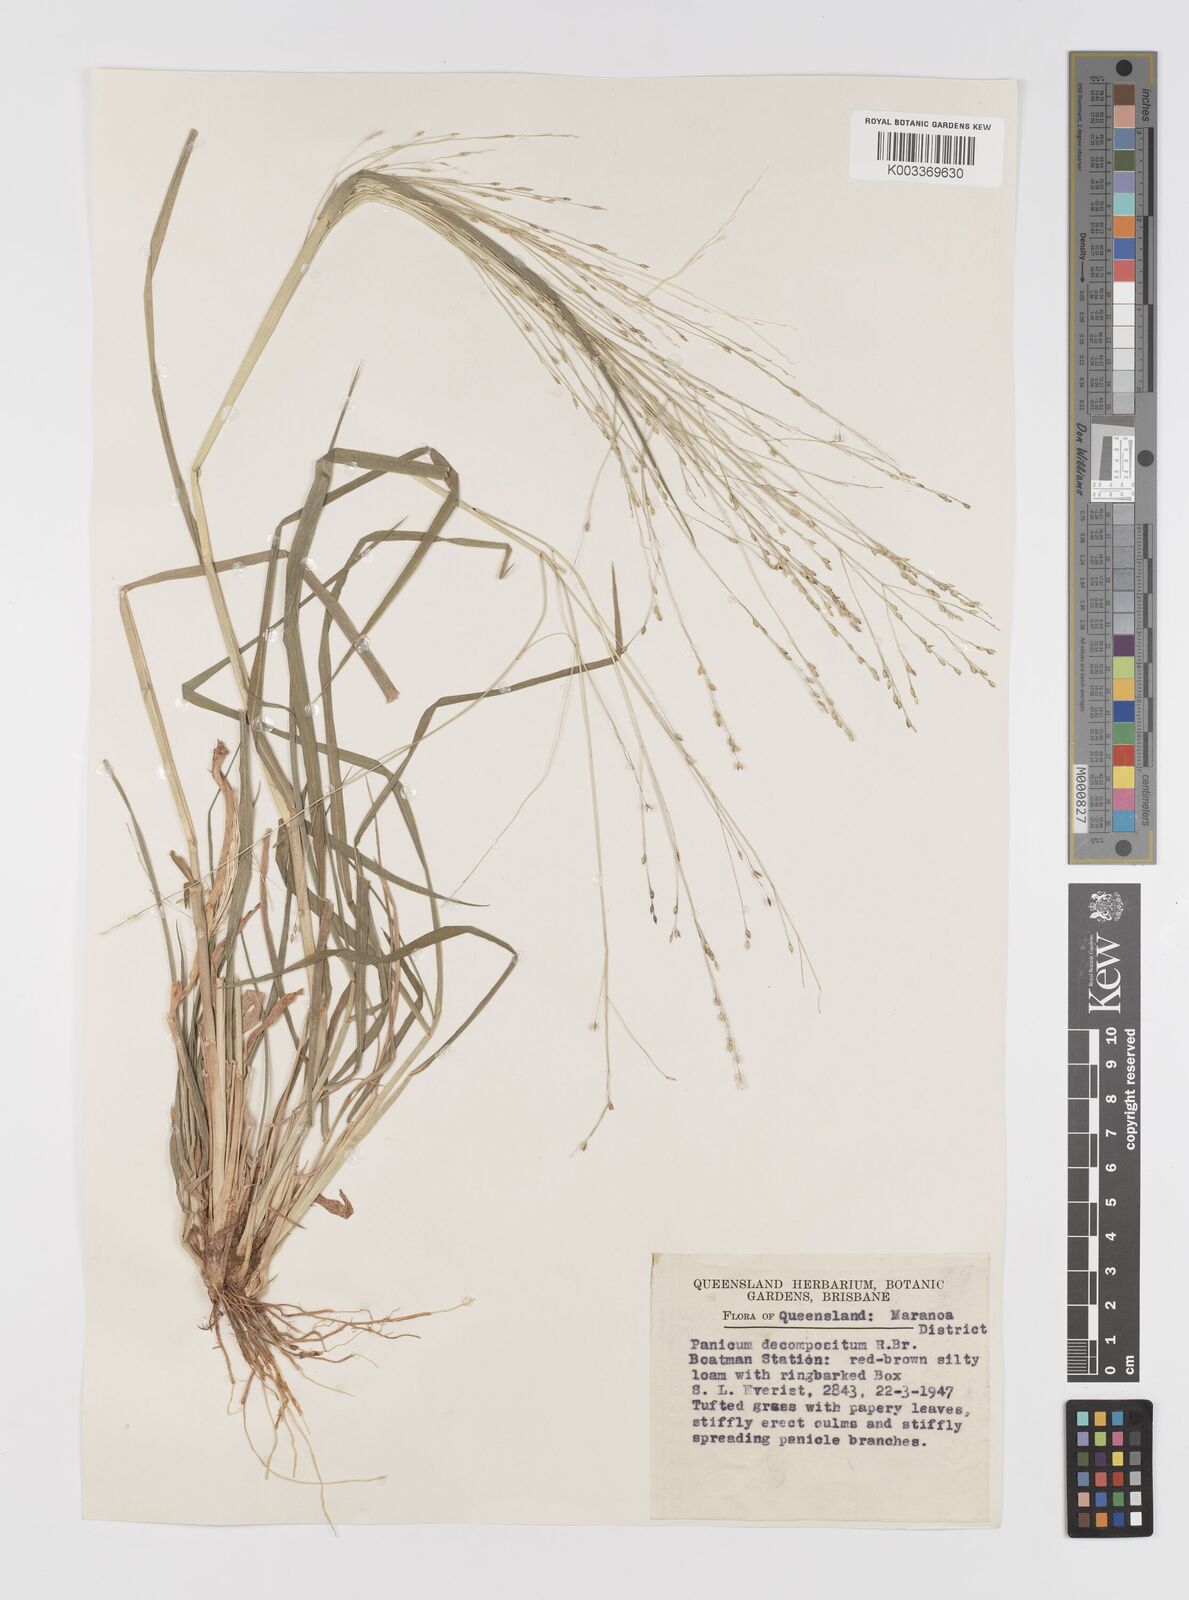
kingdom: Plantae
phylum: Tracheophyta
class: Liliopsida
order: Poales
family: Poaceae
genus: Panicum
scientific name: Panicum decompositum
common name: Australian millet
